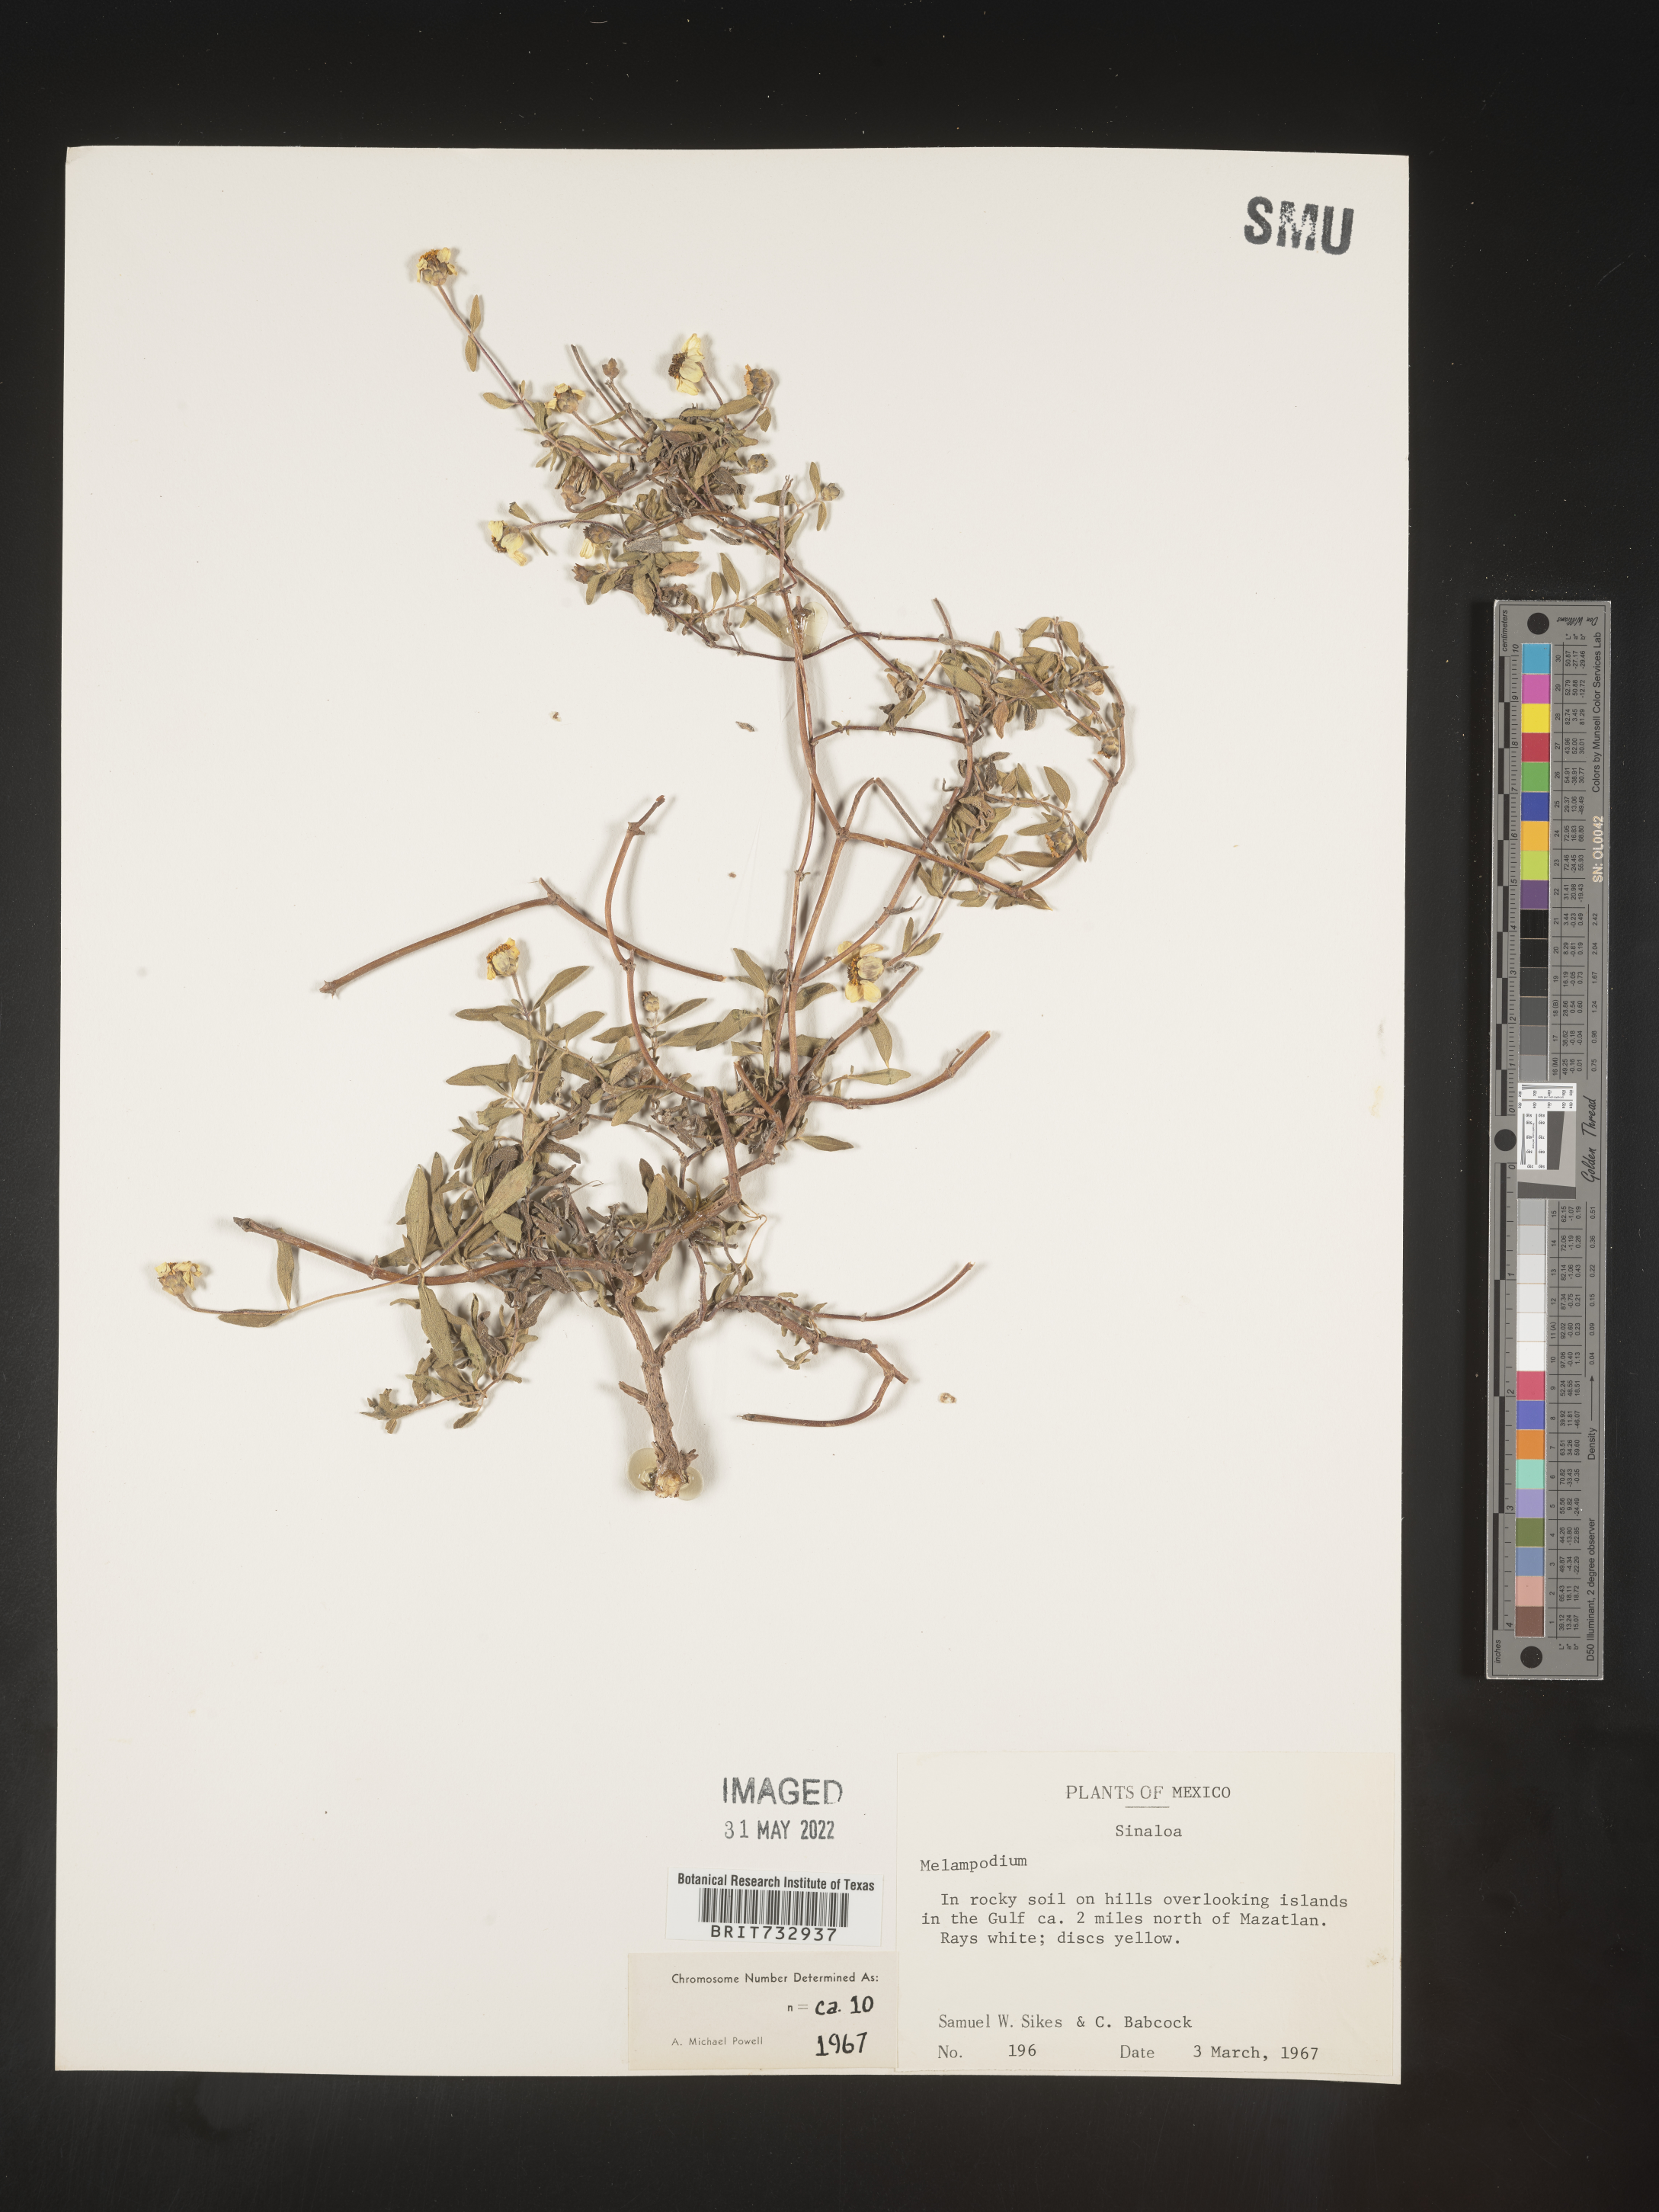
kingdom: Plantae
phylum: Tracheophyta
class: Magnoliopsida
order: Asterales
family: Asteraceae
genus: Melampodium
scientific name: Melampodium
